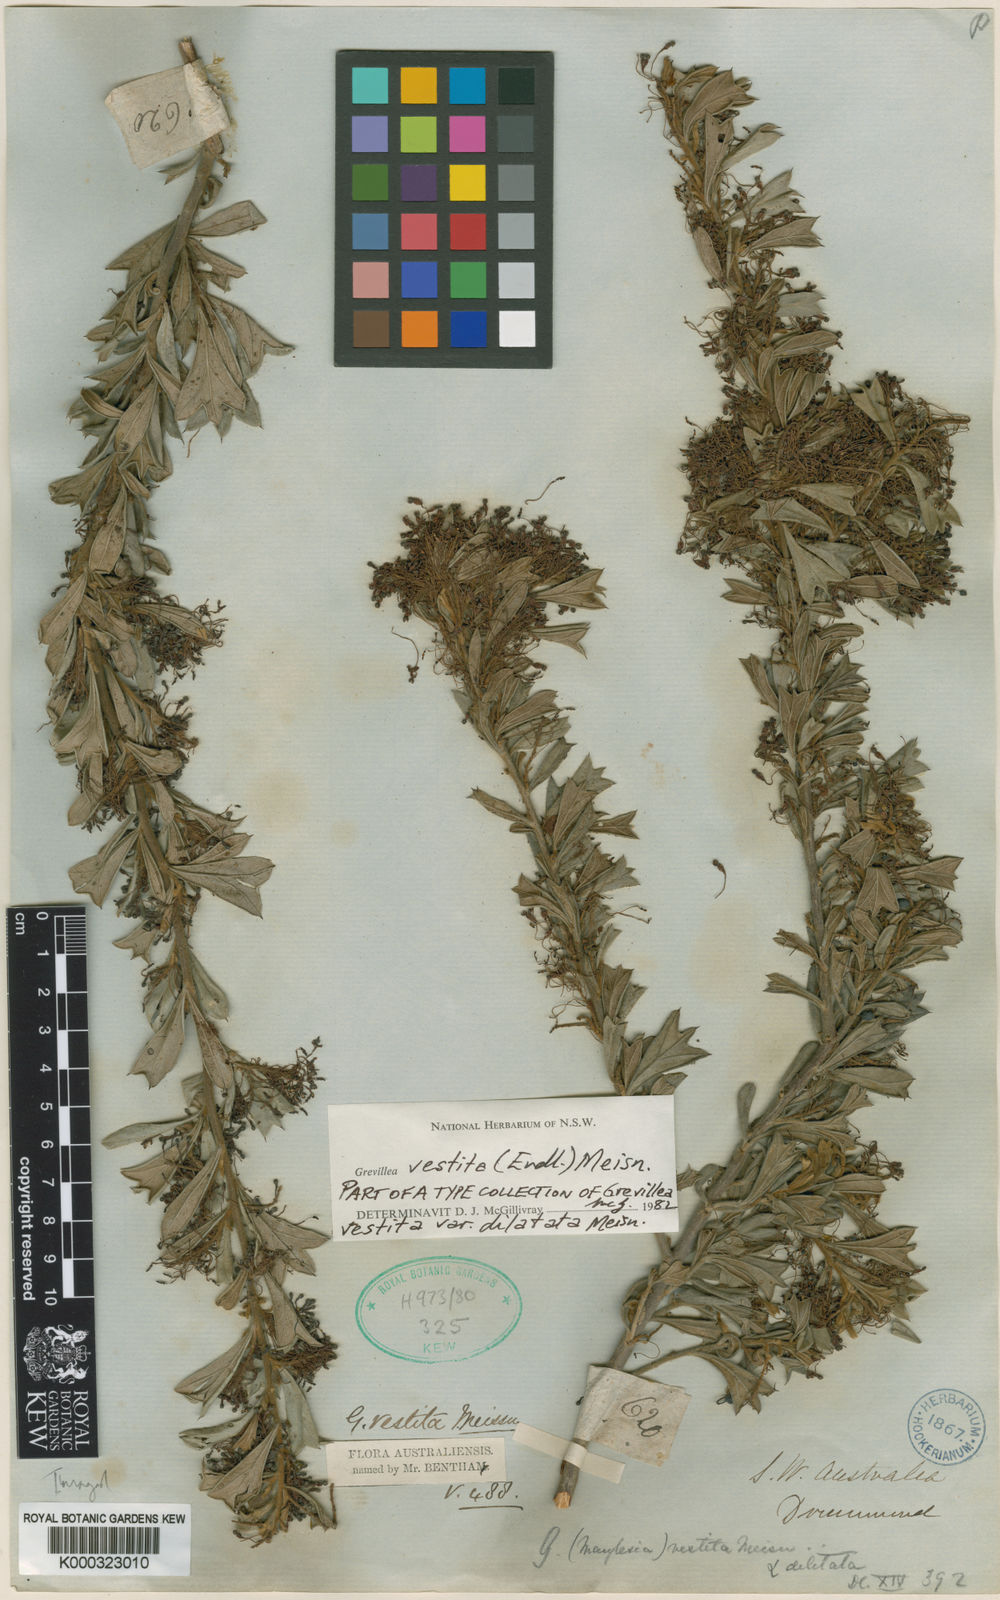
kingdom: Plantae
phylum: Tracheophyta
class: Magnoliopsida
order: Proteales
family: Proteaceae
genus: Grevillea
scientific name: Grevillea vestita
